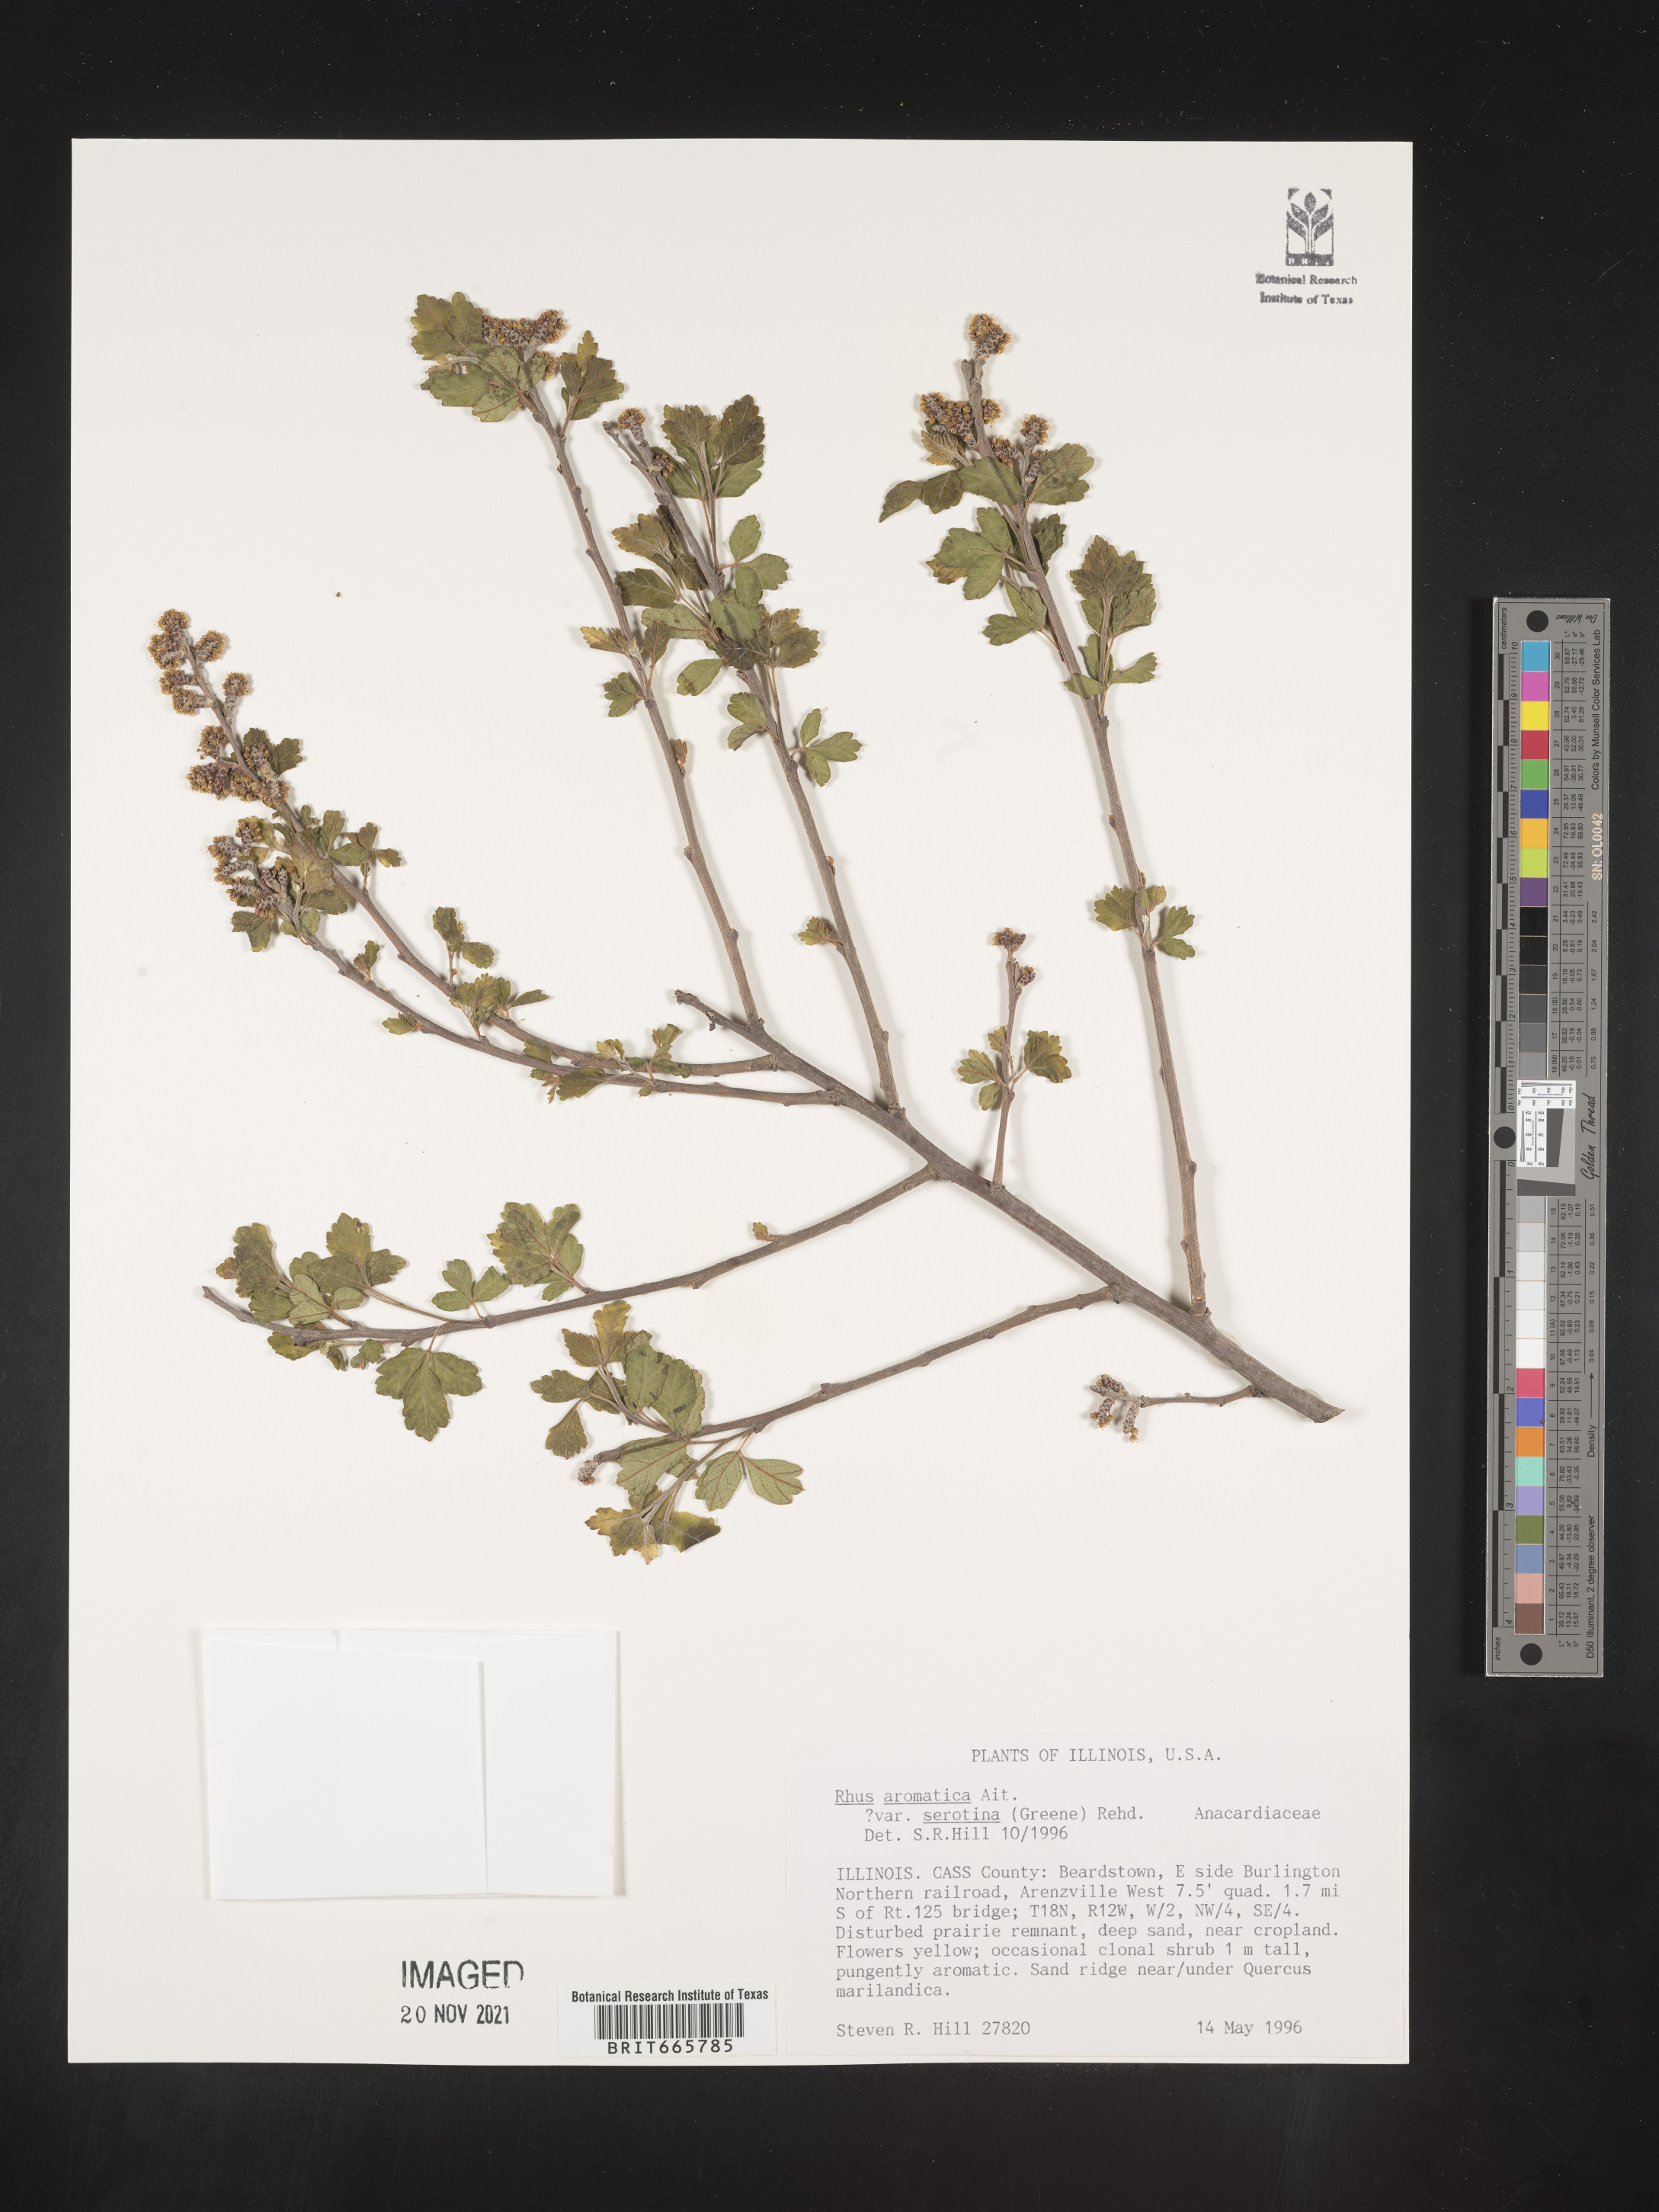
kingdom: Plantae
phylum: Tracheophyta
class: Magnoliopsida
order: Sapindales
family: Anacardiaceae
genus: Rhus
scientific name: Rhus aromatica
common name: Aromatic sumac
